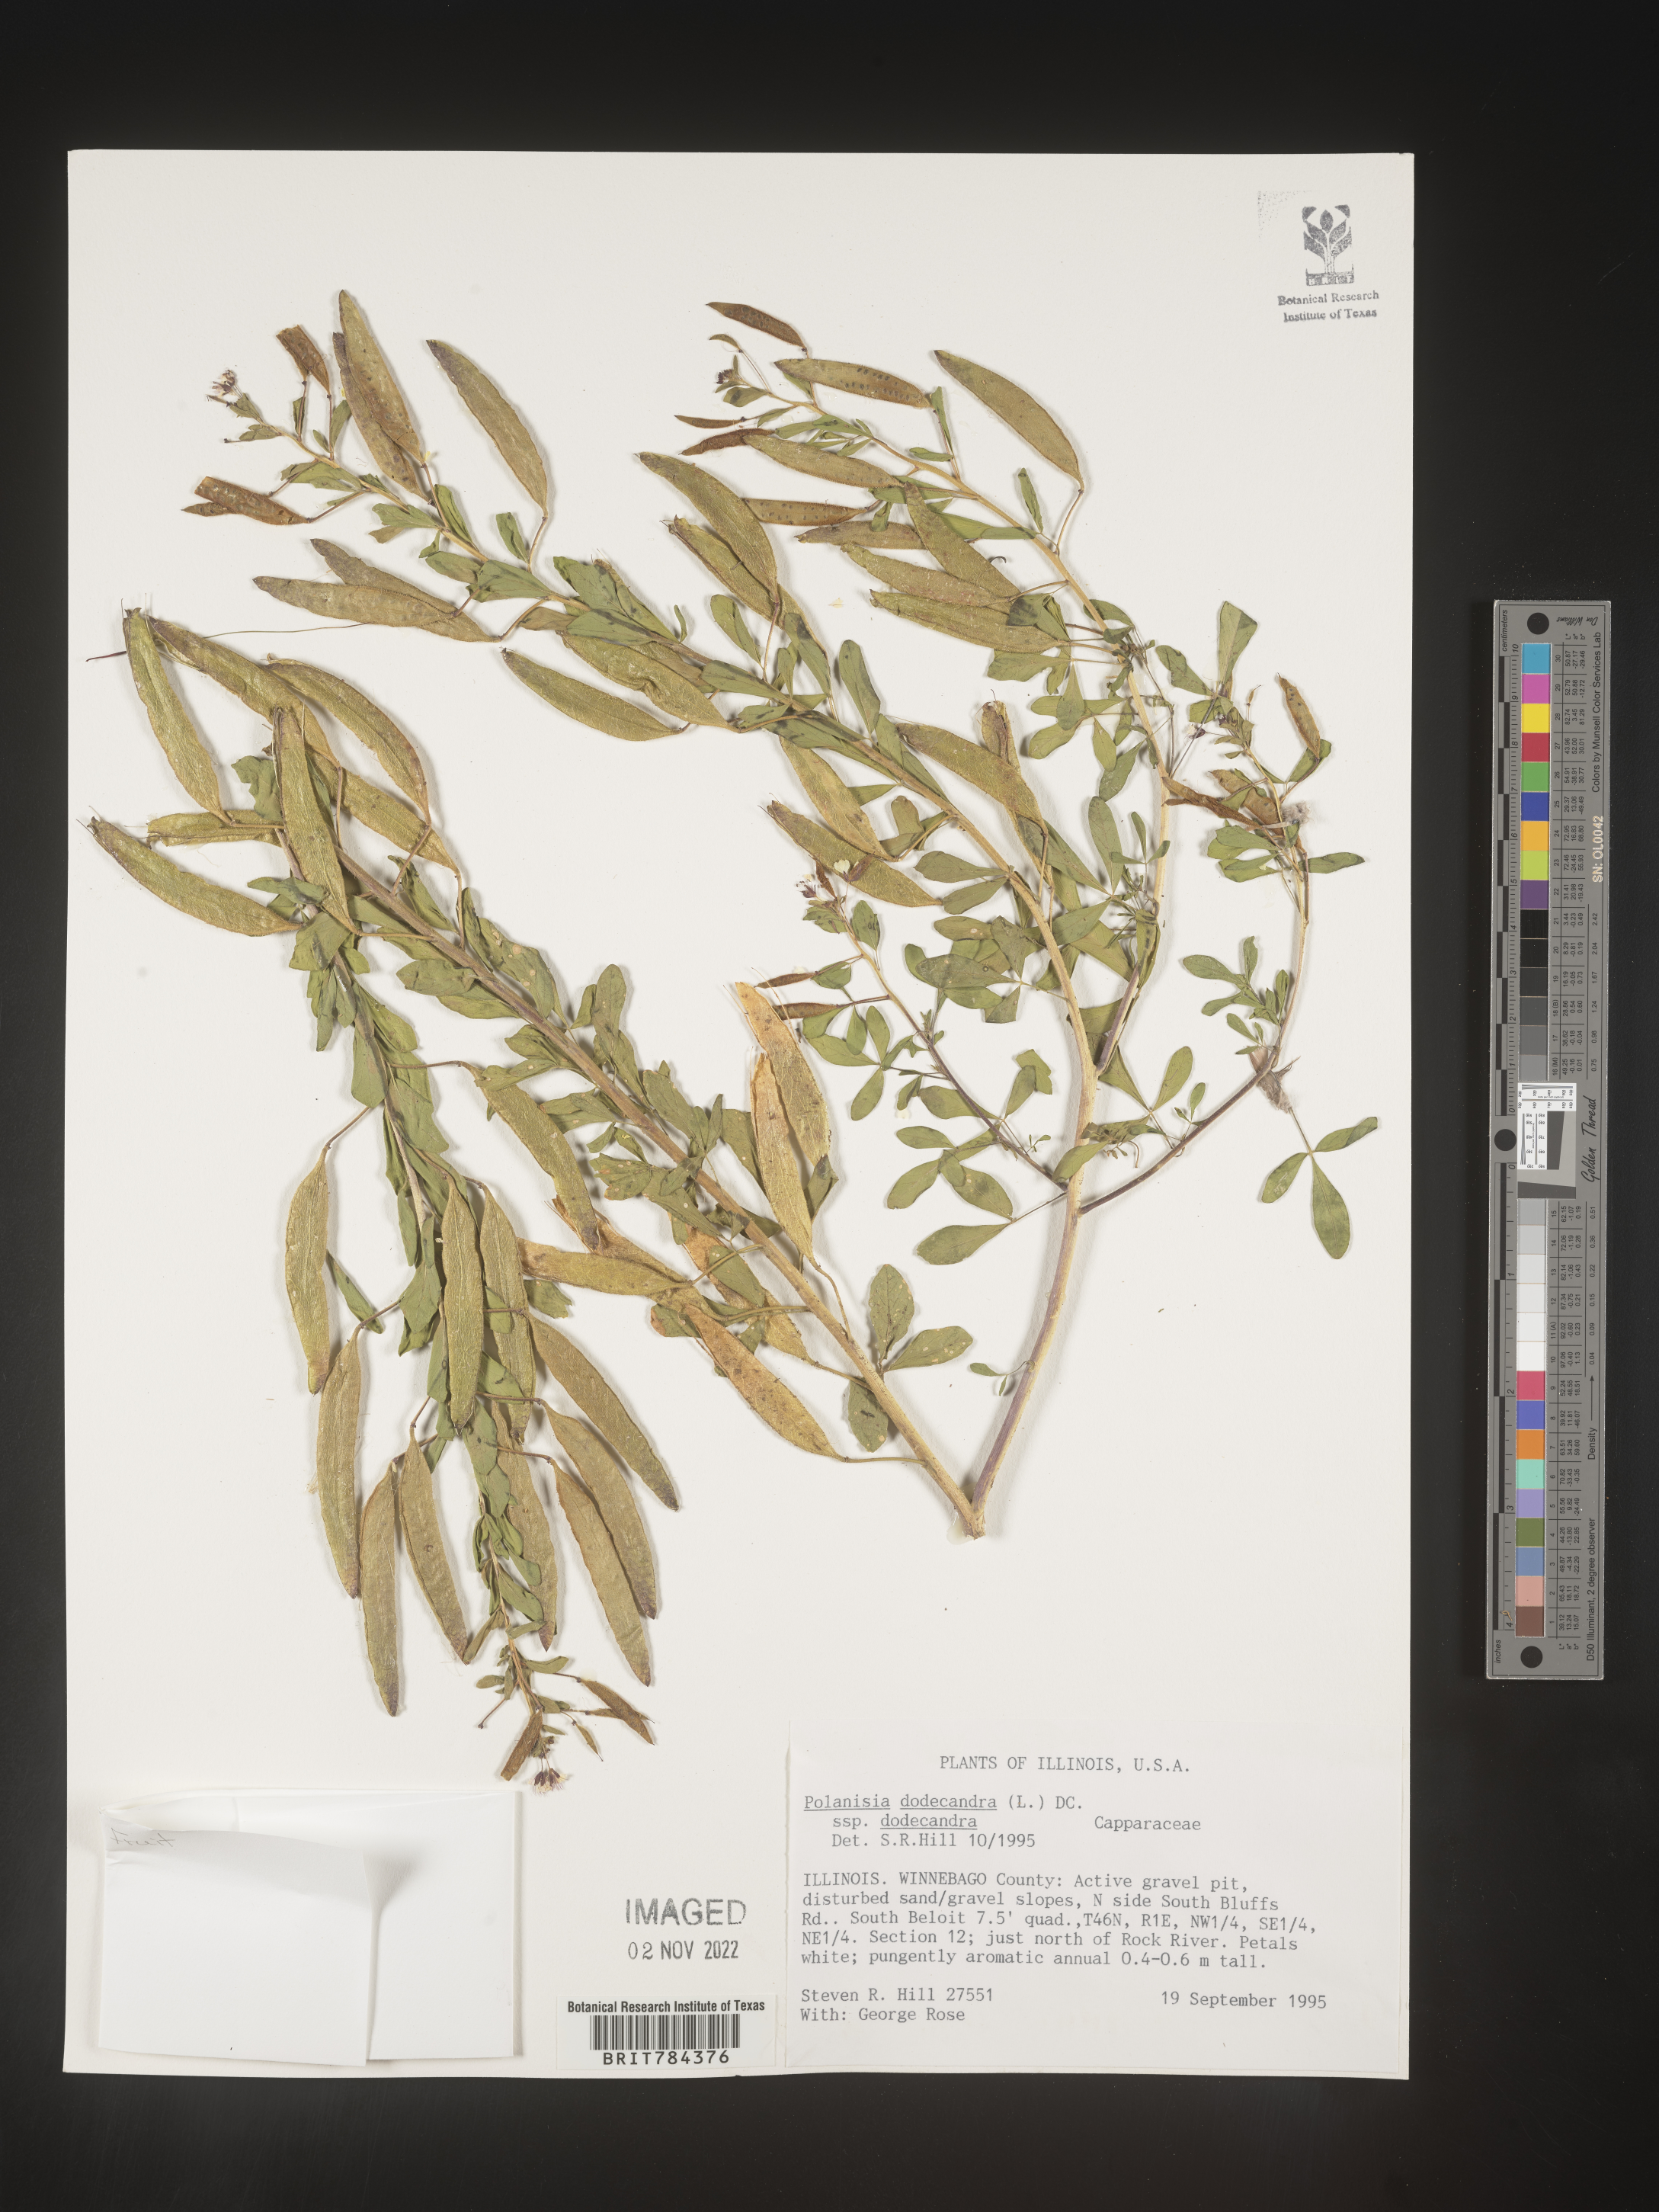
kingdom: Plantae
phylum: Tracheophyta
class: Magnoliopsida
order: Brassicales
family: Cleomaceae
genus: Polanisia
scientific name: Polanisia dodecandra
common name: Clammyweed
